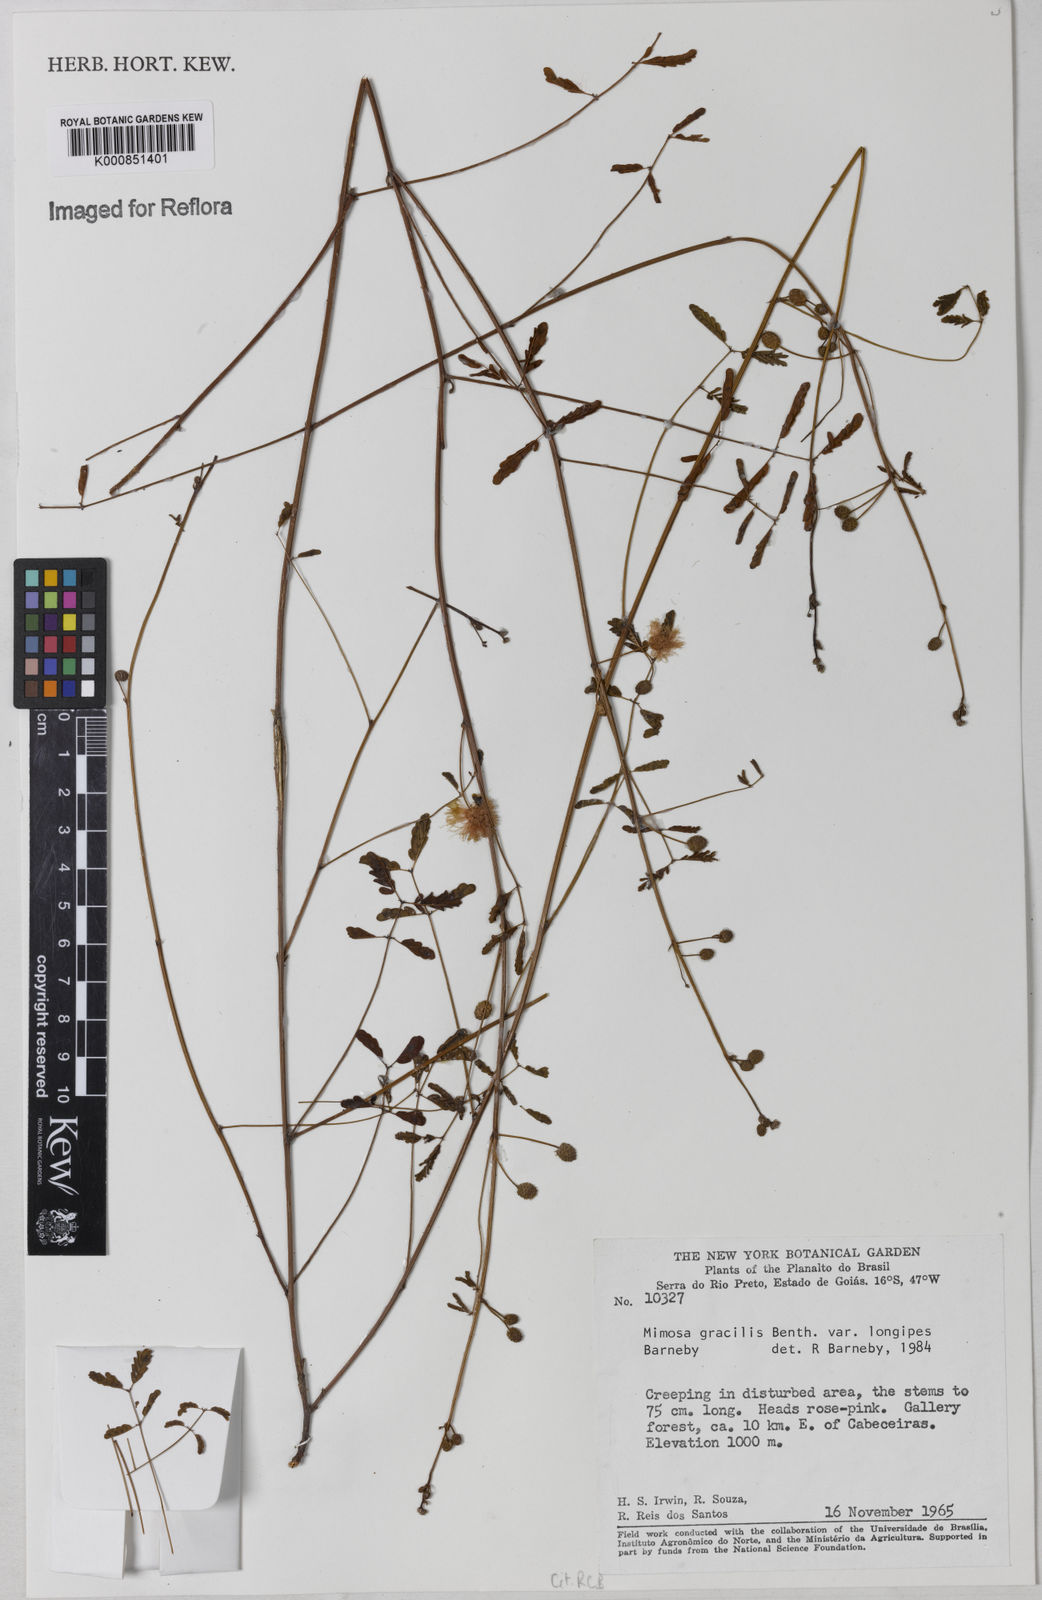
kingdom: Plantae
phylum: Tracheophyta
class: Magnoliopsida
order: Fabales
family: Fabaceae
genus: Mimosa
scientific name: Mimosa gracilis
